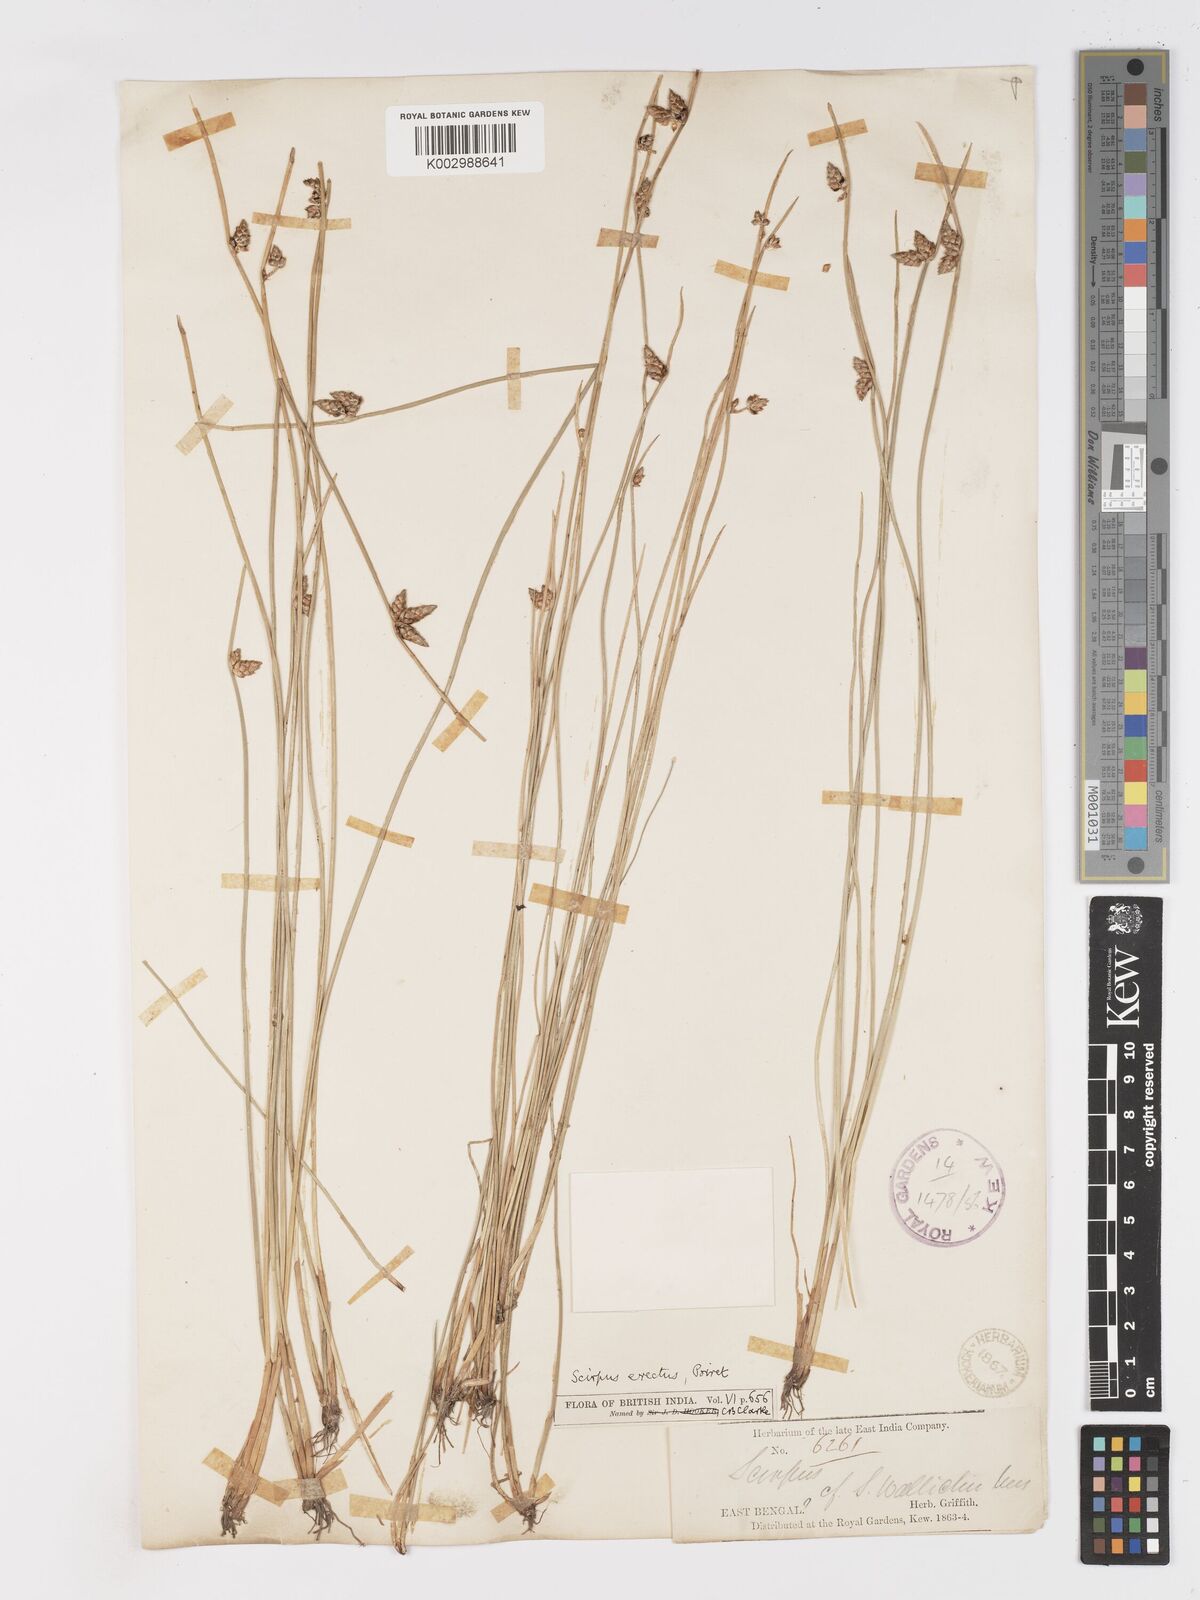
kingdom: Plantae
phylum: Tracheophyta
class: Liliopsida
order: Poales
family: Cyperaceae
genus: Schoenoplectiella
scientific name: Schoenoplectiella juncoides
